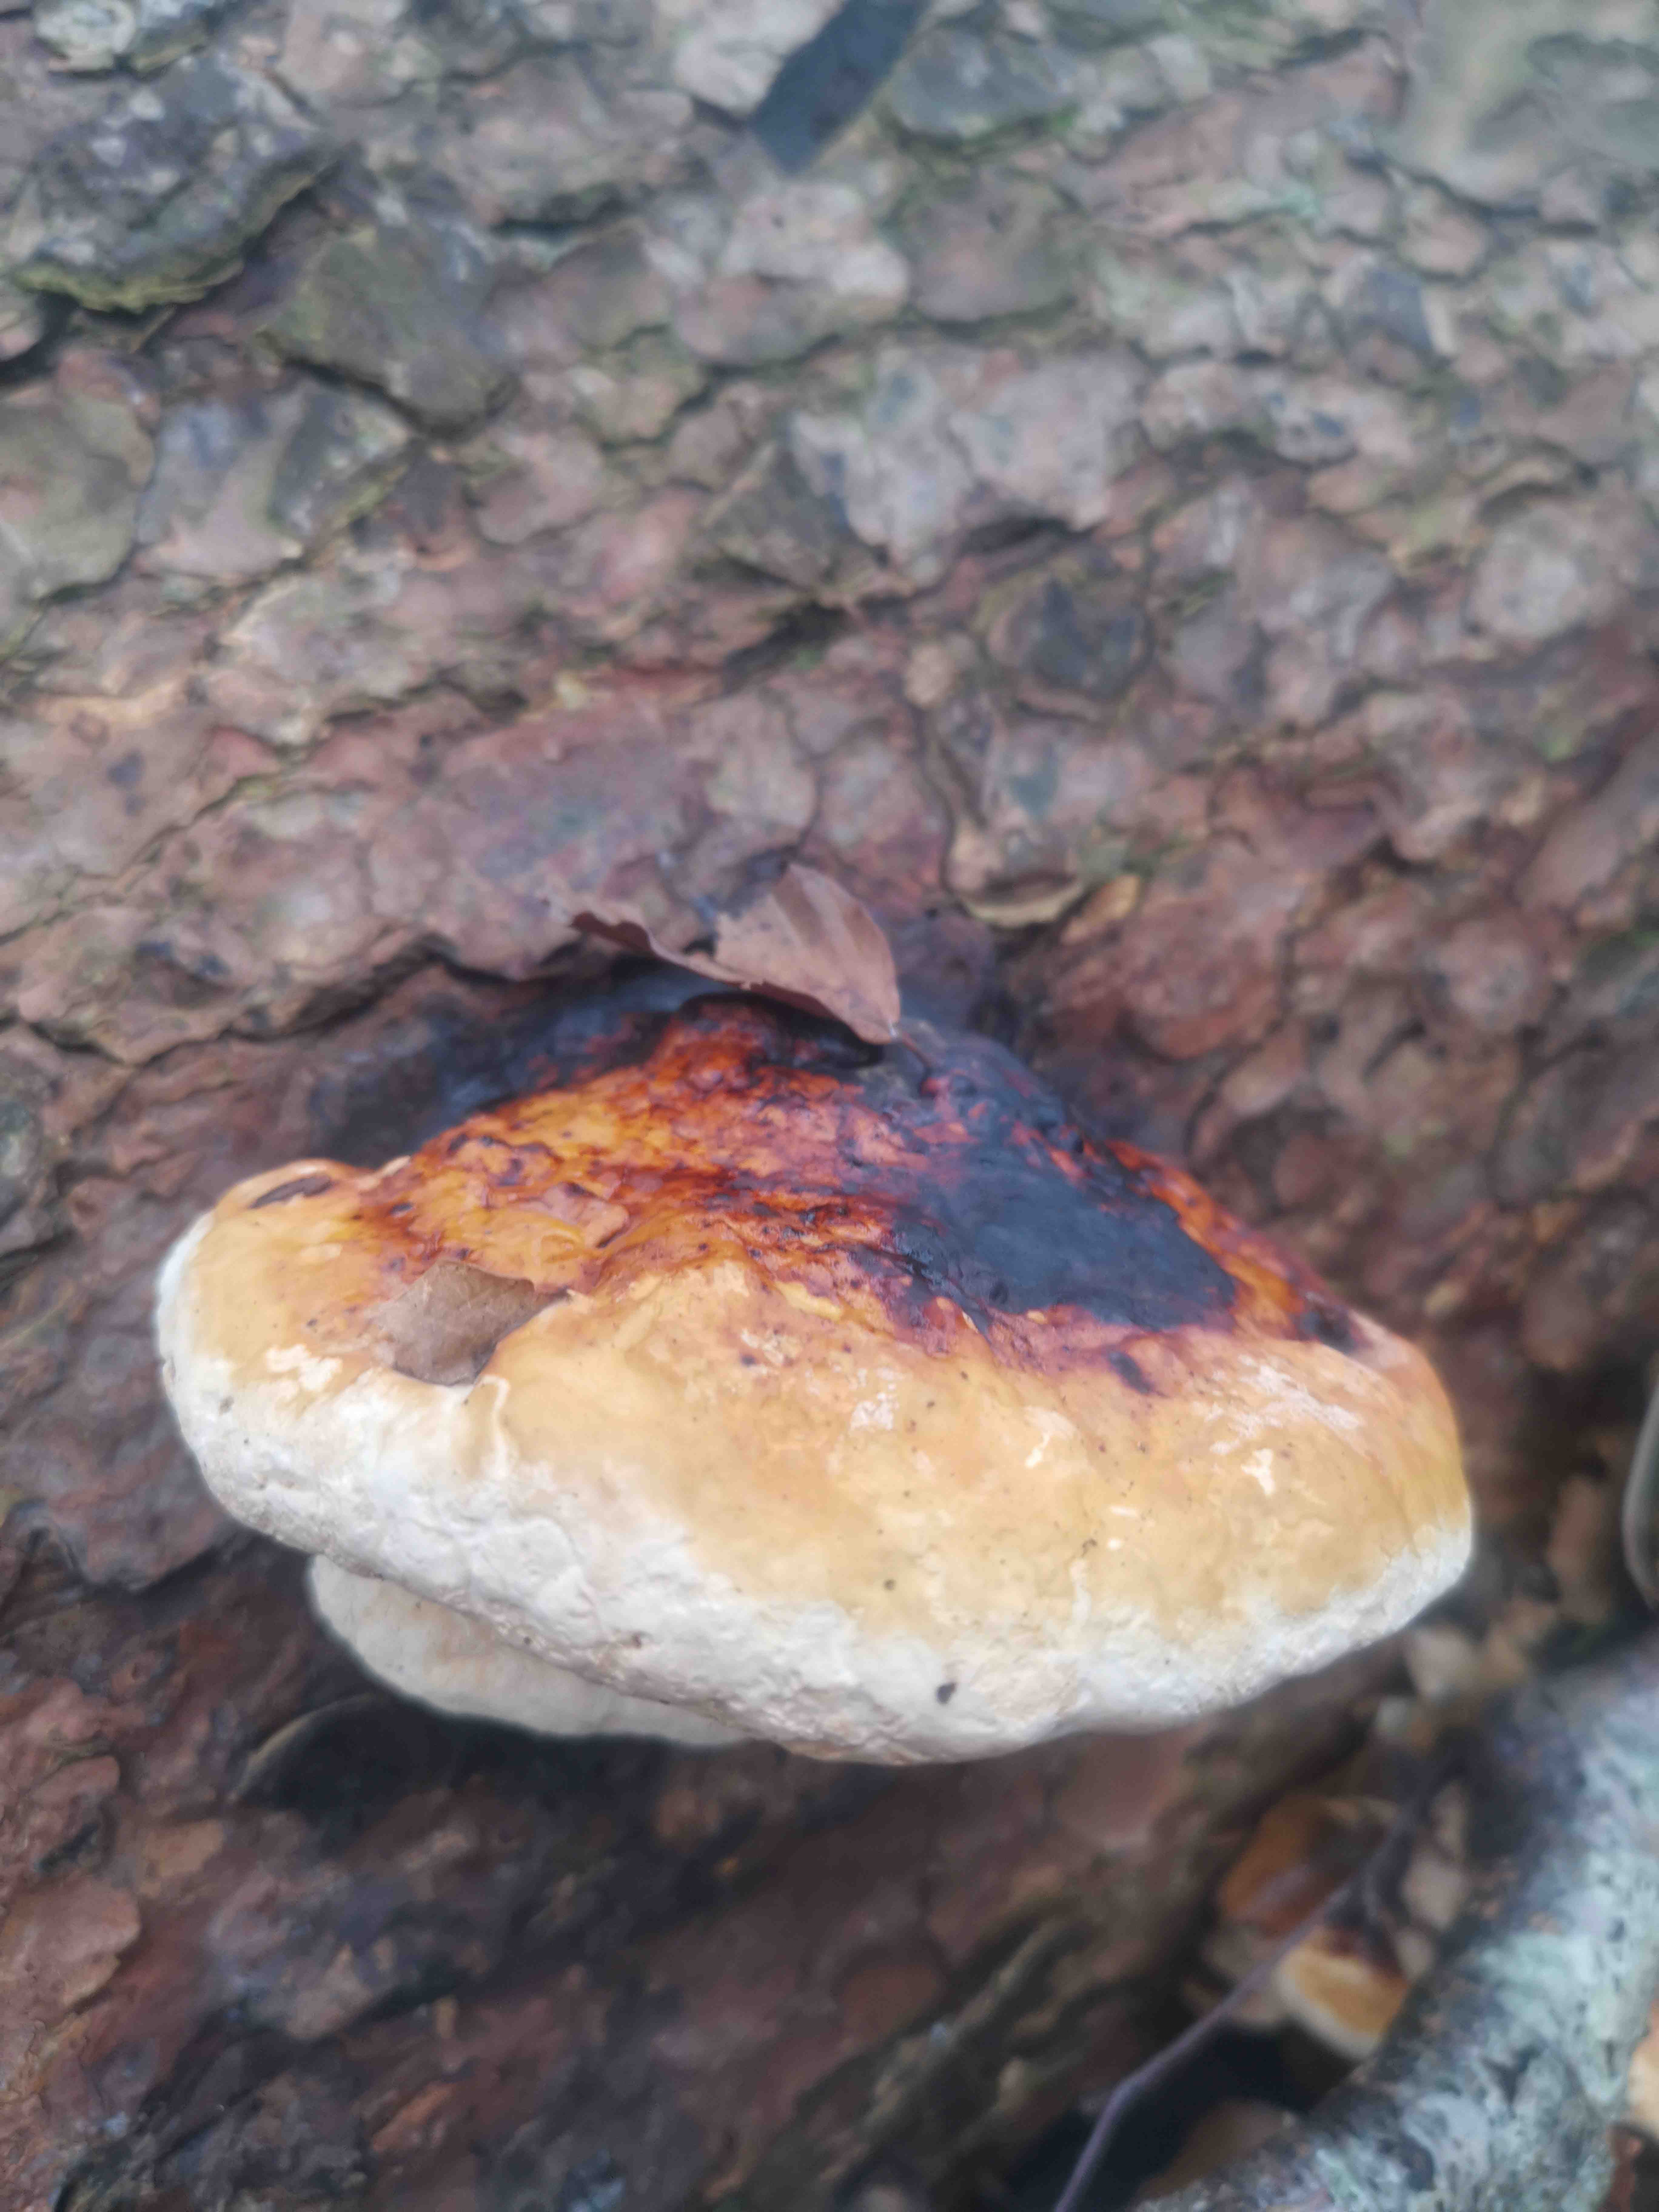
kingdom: Fungi
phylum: Basidiomycota
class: Agaricomycetes
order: Polyporales
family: Fomitopsidaceae
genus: Fomitopsis
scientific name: Fomitopsis pinicola
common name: randbæltet hovporesvamp
